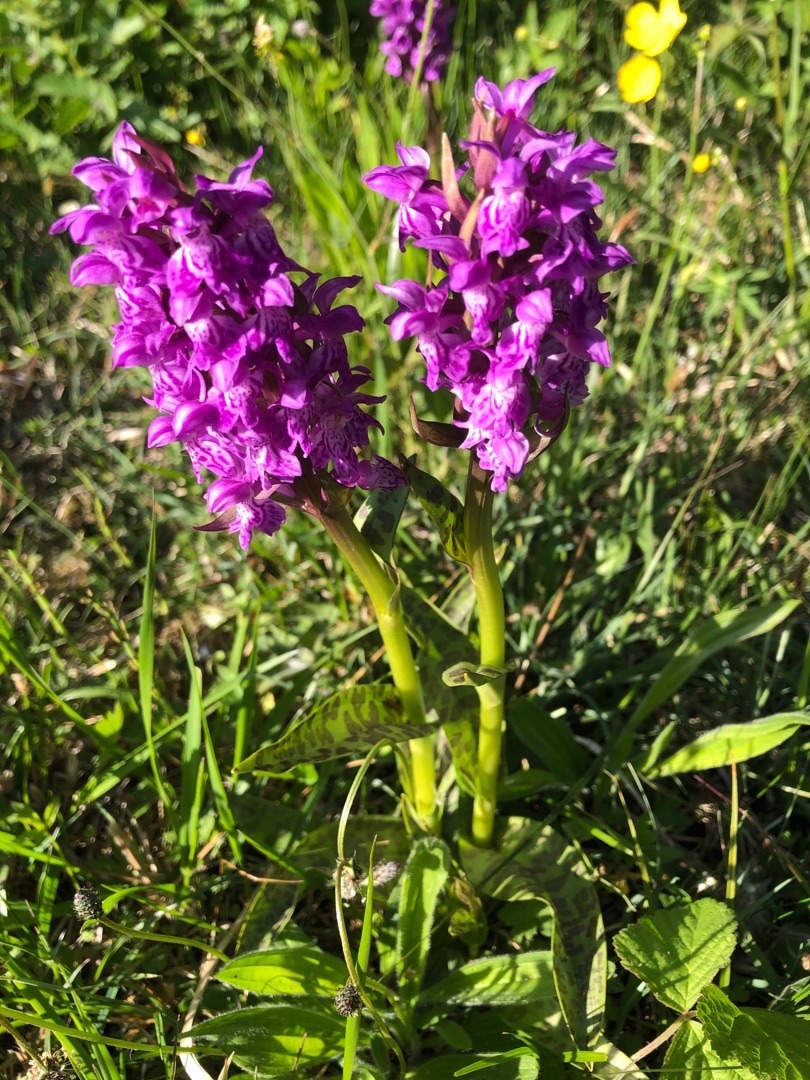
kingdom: Plantae
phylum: Tracheophyta
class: Liliopsida
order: Asparagales
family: Orchidaceae
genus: Dactylorhiza
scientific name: Dactylorhiza majalis
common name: Maj-gøgeurt
